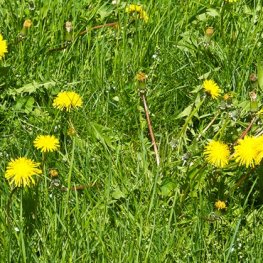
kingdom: Animalia
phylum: Arthropoda
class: Insecta
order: Lepidoptera
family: Nymphalidae
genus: Vanessa
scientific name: Vanessa atalanta
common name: Red Admiral
